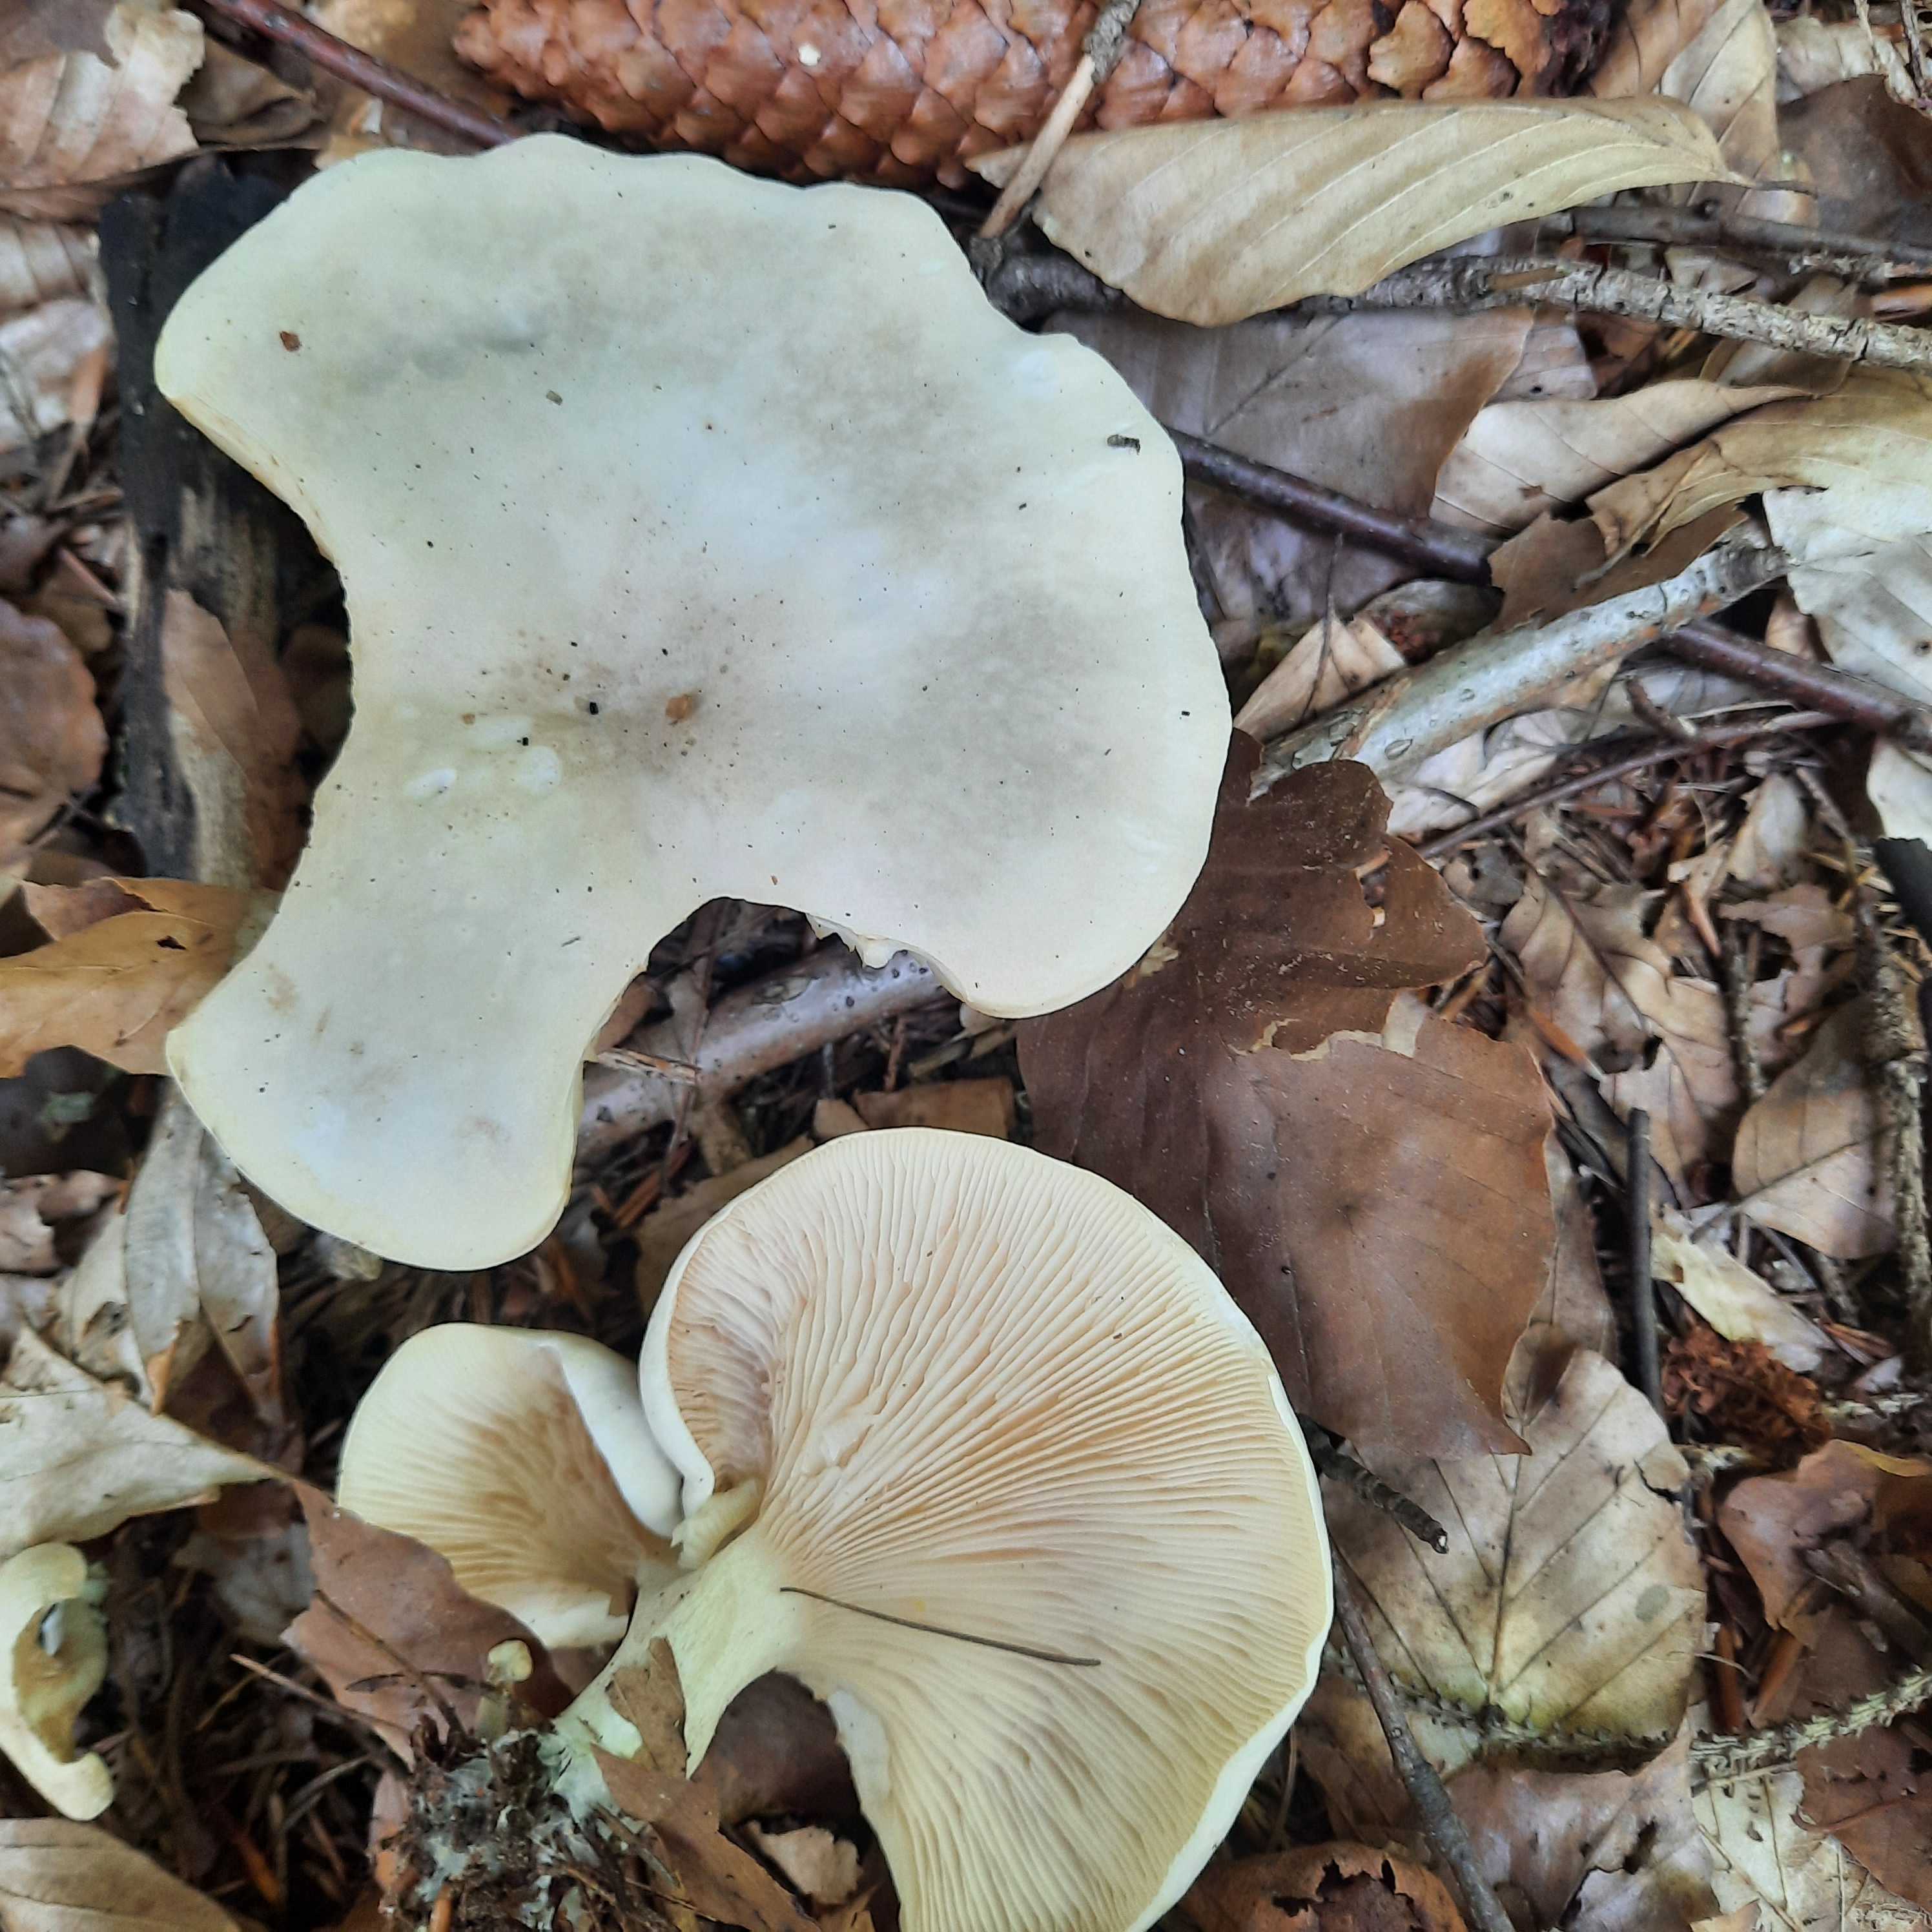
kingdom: Fungi
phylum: Basidiomycota
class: Agaricomycetes
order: Agaricales
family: Entolomataceae
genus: Clitopilus
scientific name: Clitopilus prunulus
